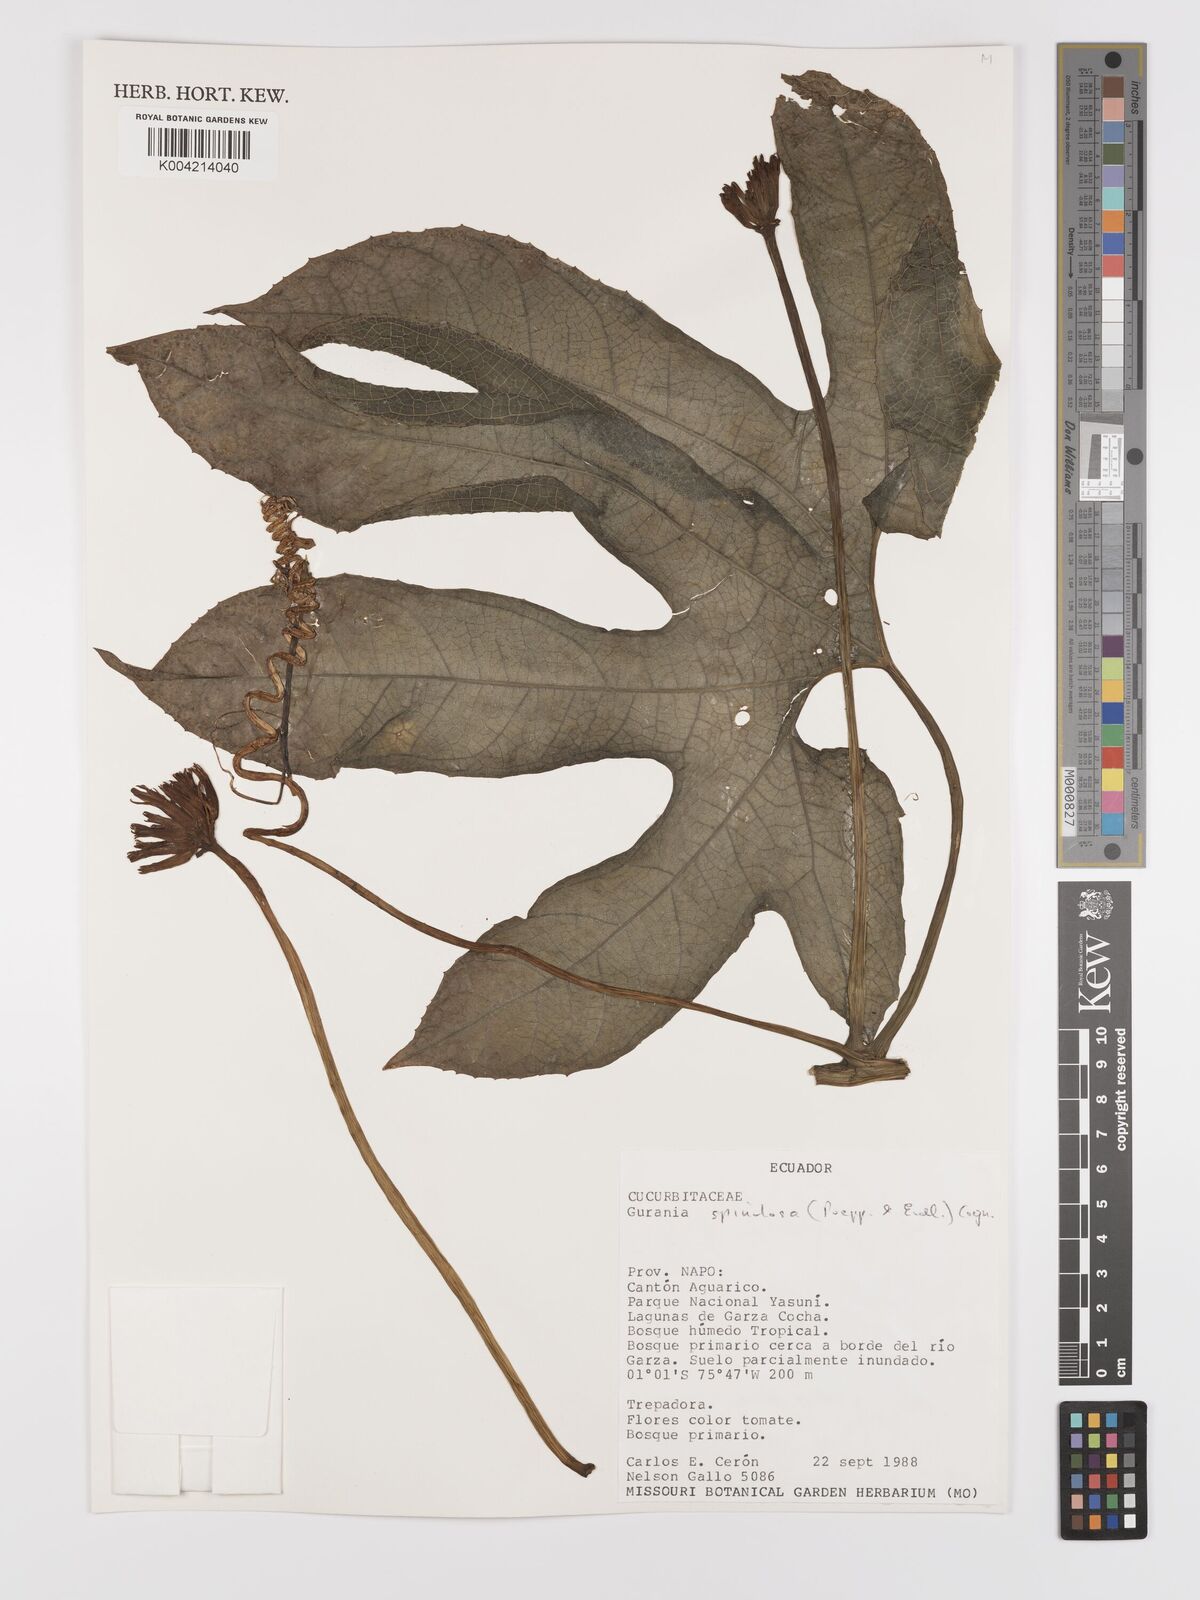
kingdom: Plantae
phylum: Tracheophyta
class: Magnoliopsida
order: Cucurbitales
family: Cucurbitaceae
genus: Gurania
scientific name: Gurania lobata
